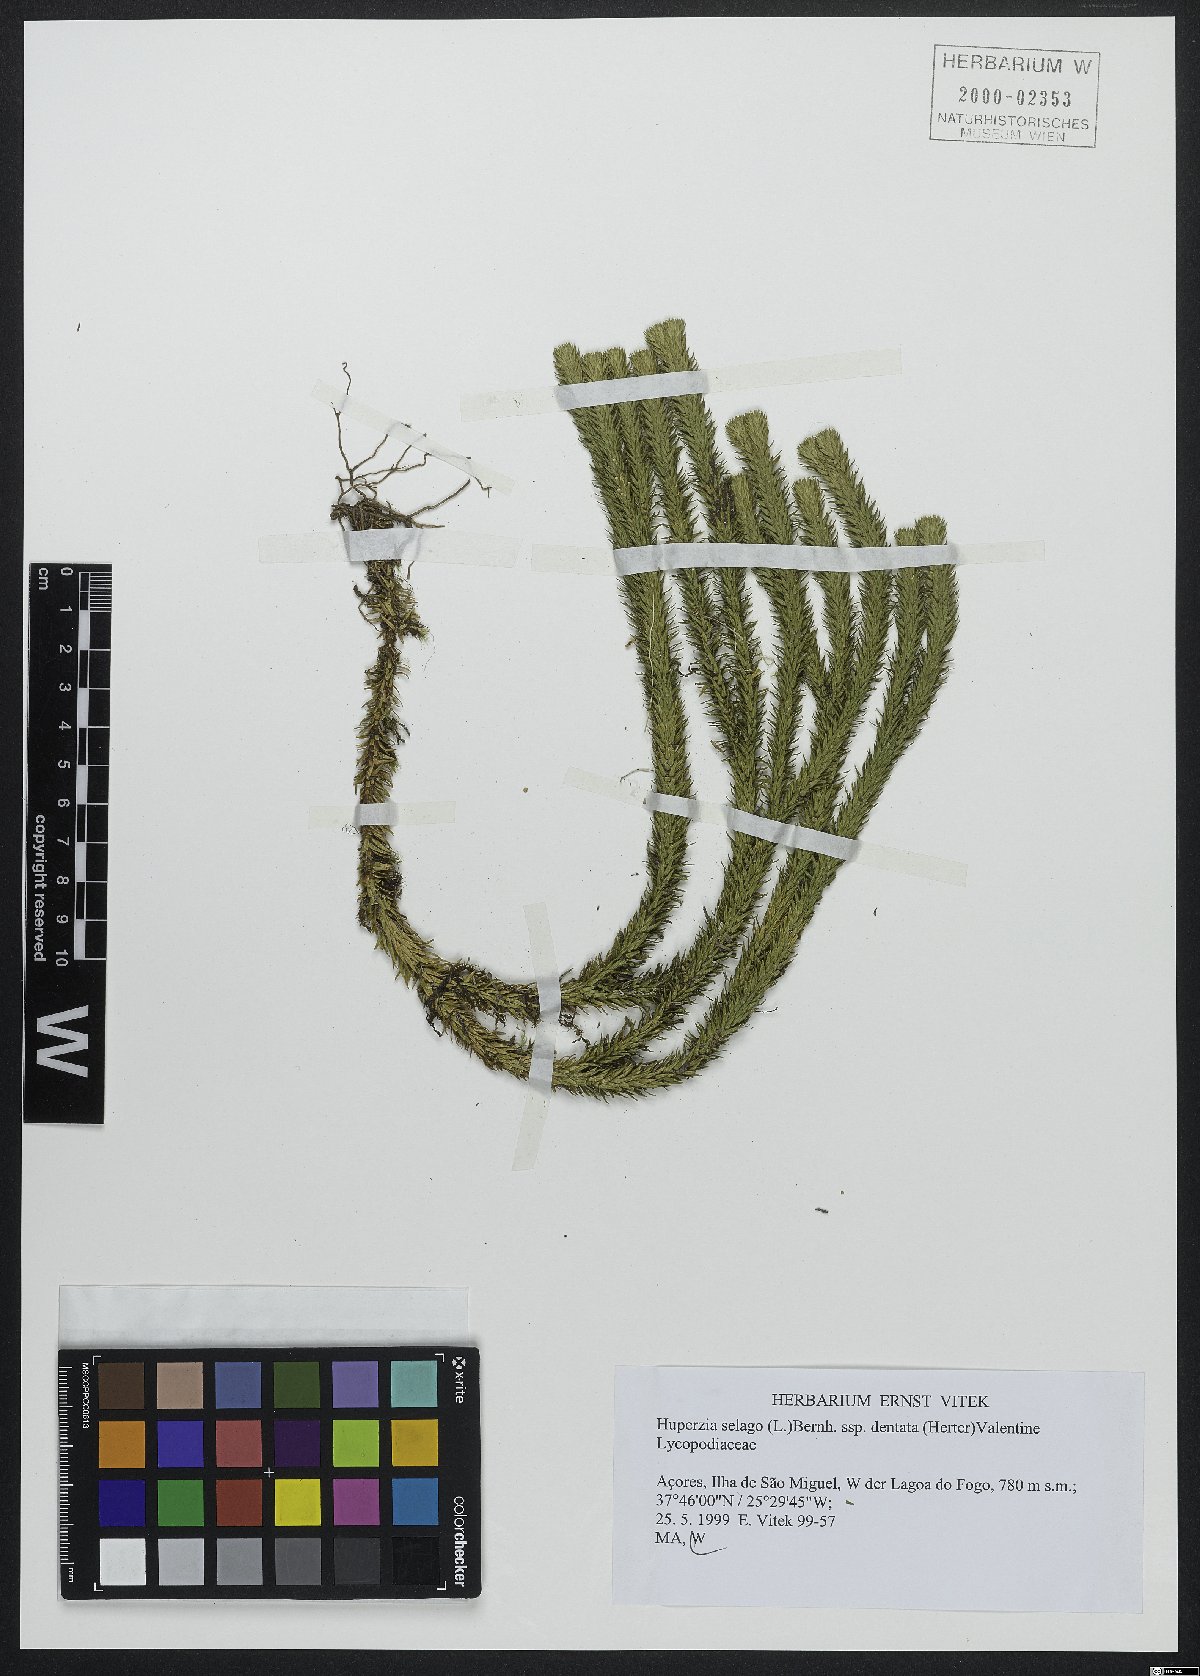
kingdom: Plantae
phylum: Tracheophyta
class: Lycopodiopsida
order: Lycopodiales
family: Lycopodiaceae
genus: Phlegmariurus
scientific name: Phlegmariurus dentatus
